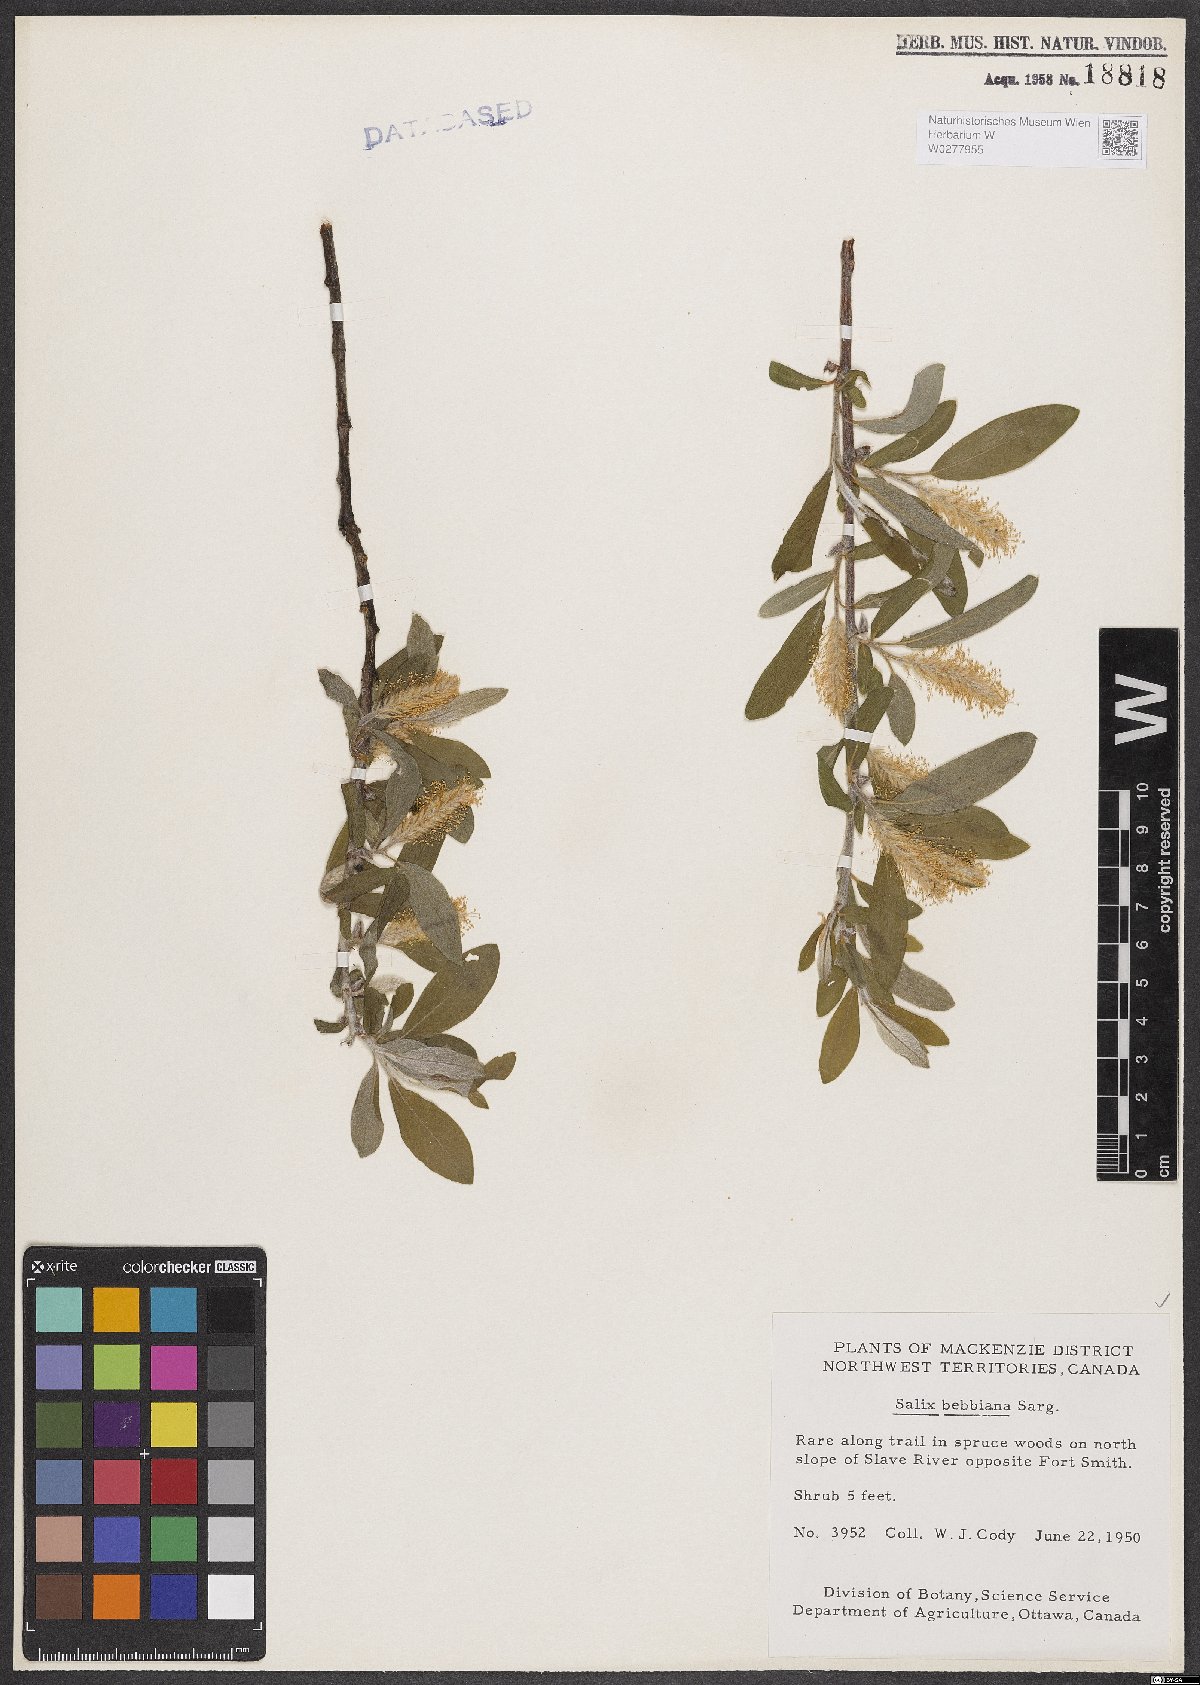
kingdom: Plantae
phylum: Tracheophyta
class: Magnoliopsida
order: Malpighiales
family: Salicaceae
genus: Salix
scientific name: Salix bebbiana
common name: Bebb's willow
